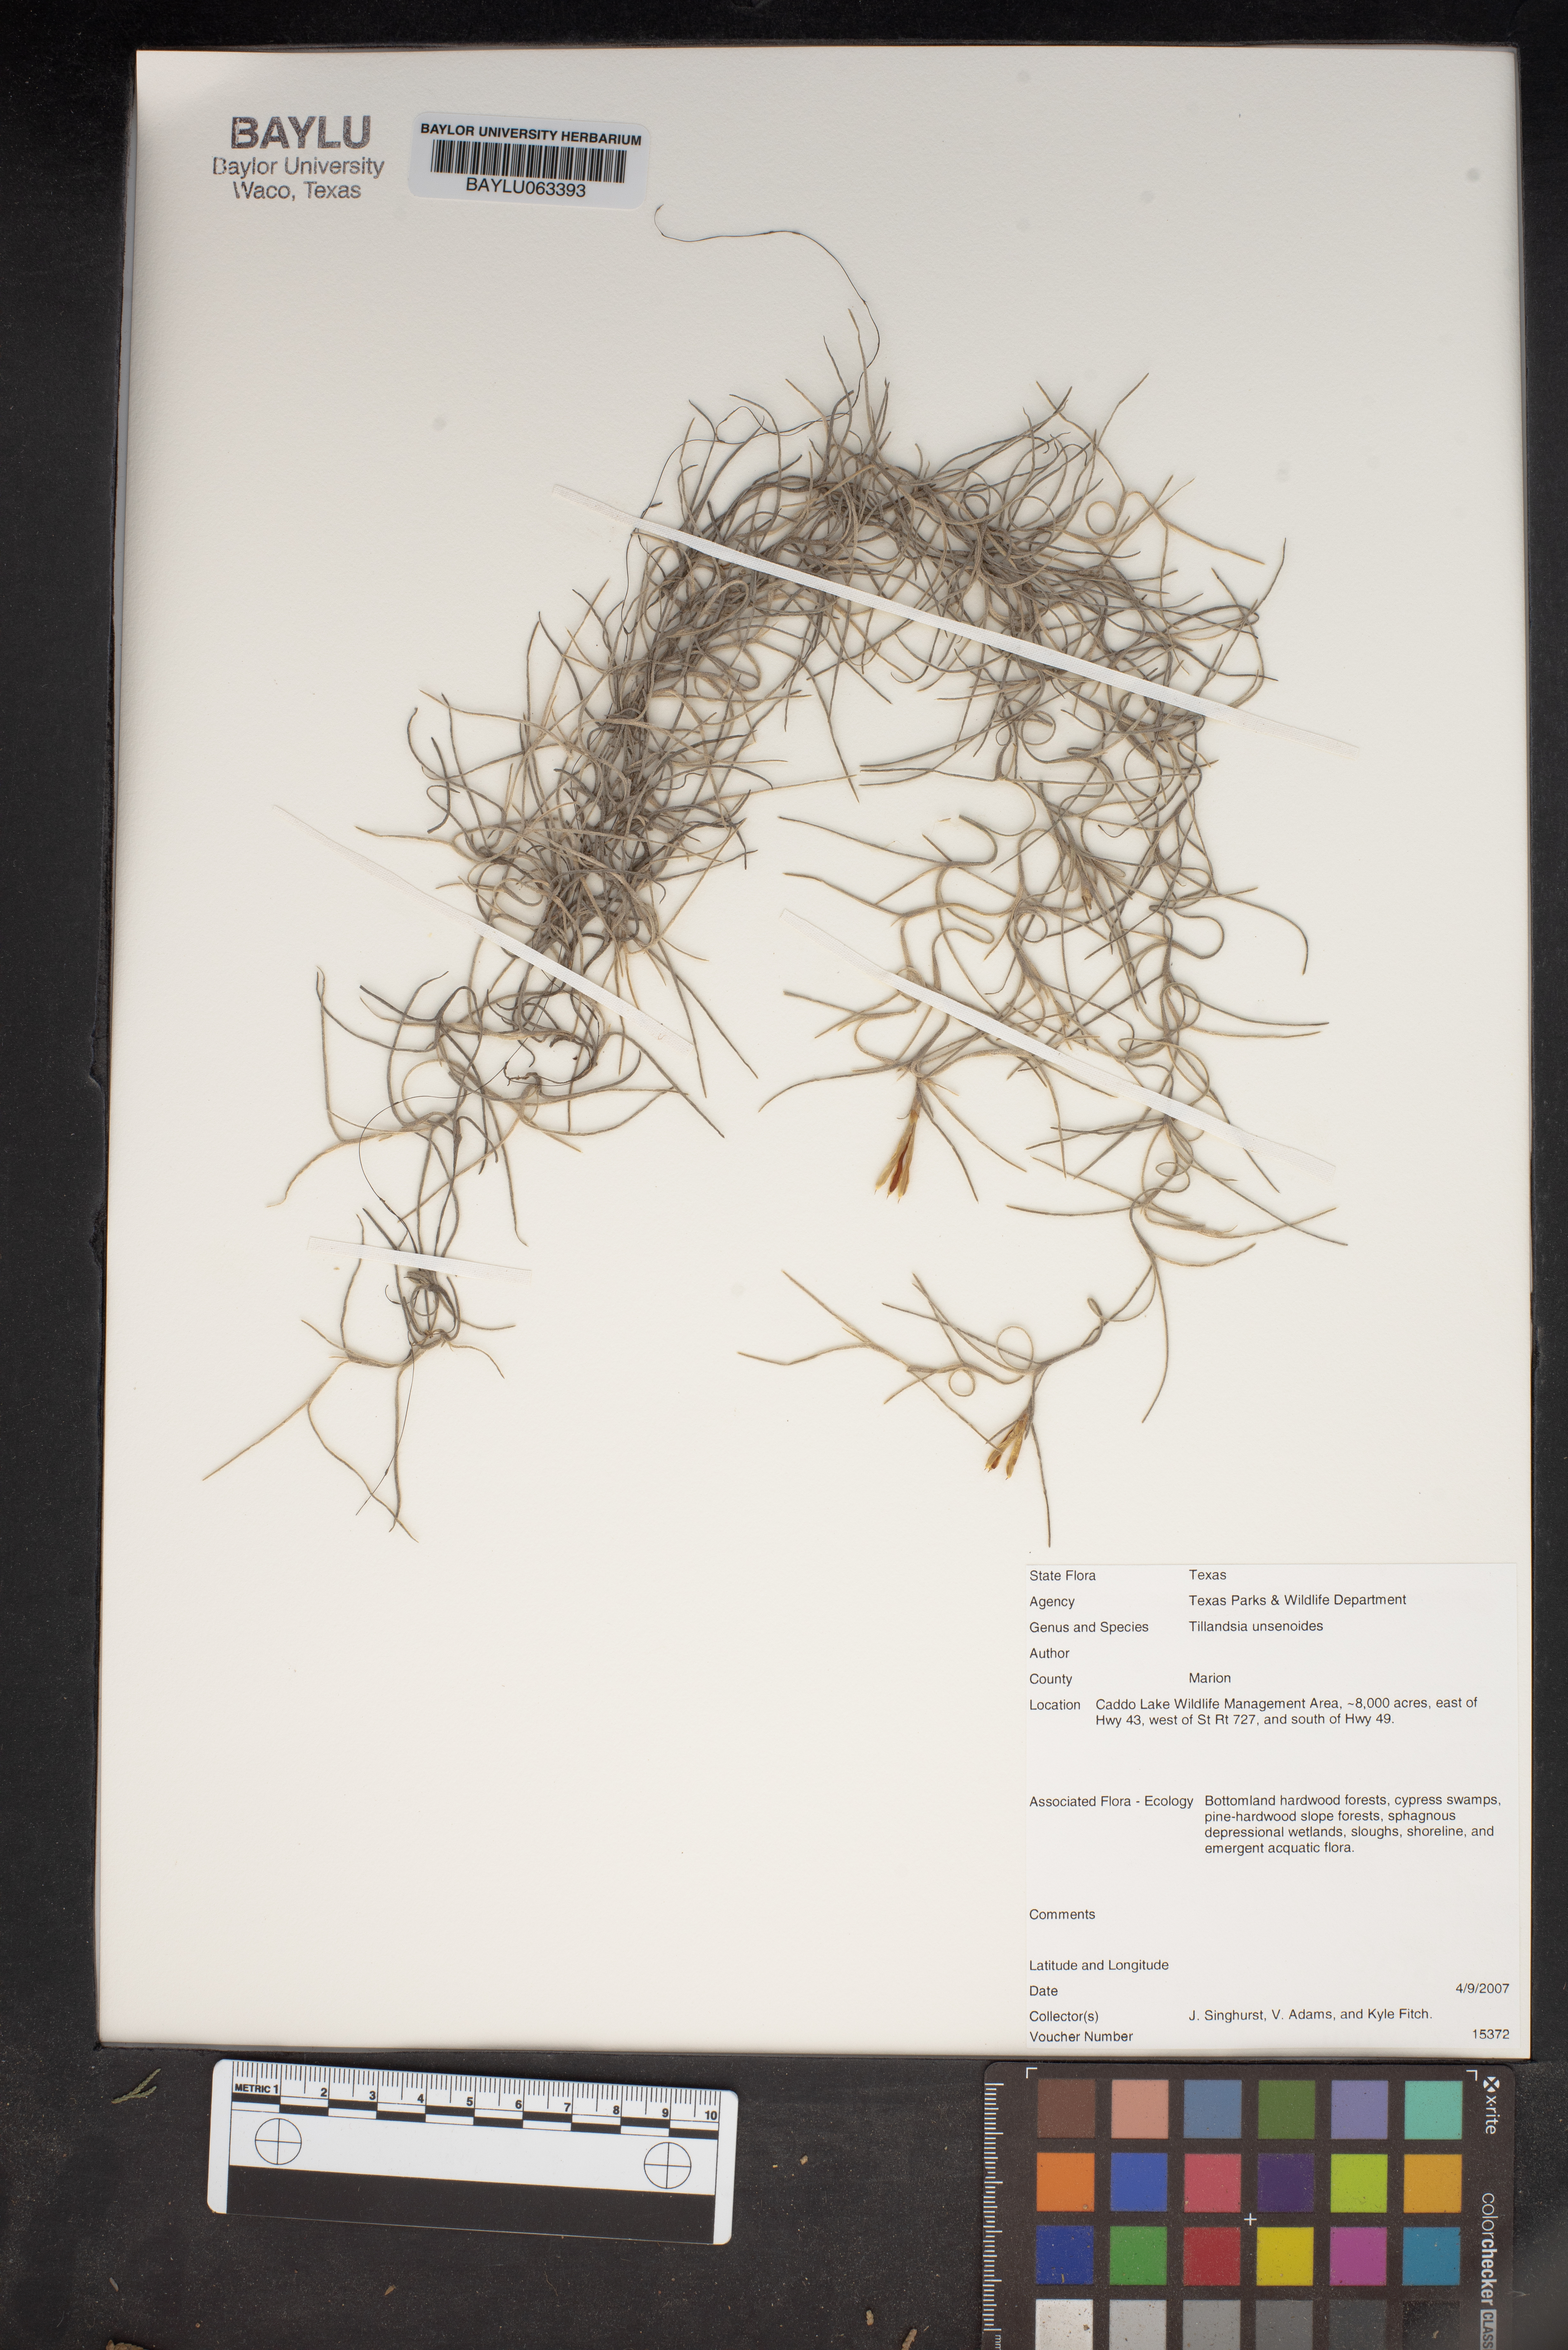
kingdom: Plantae
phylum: Tracheophyta
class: Liliopsida
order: Poales
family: Bromeliaceae
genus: Tillandsia
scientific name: Tillandsia usneoides
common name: Spanish moss
